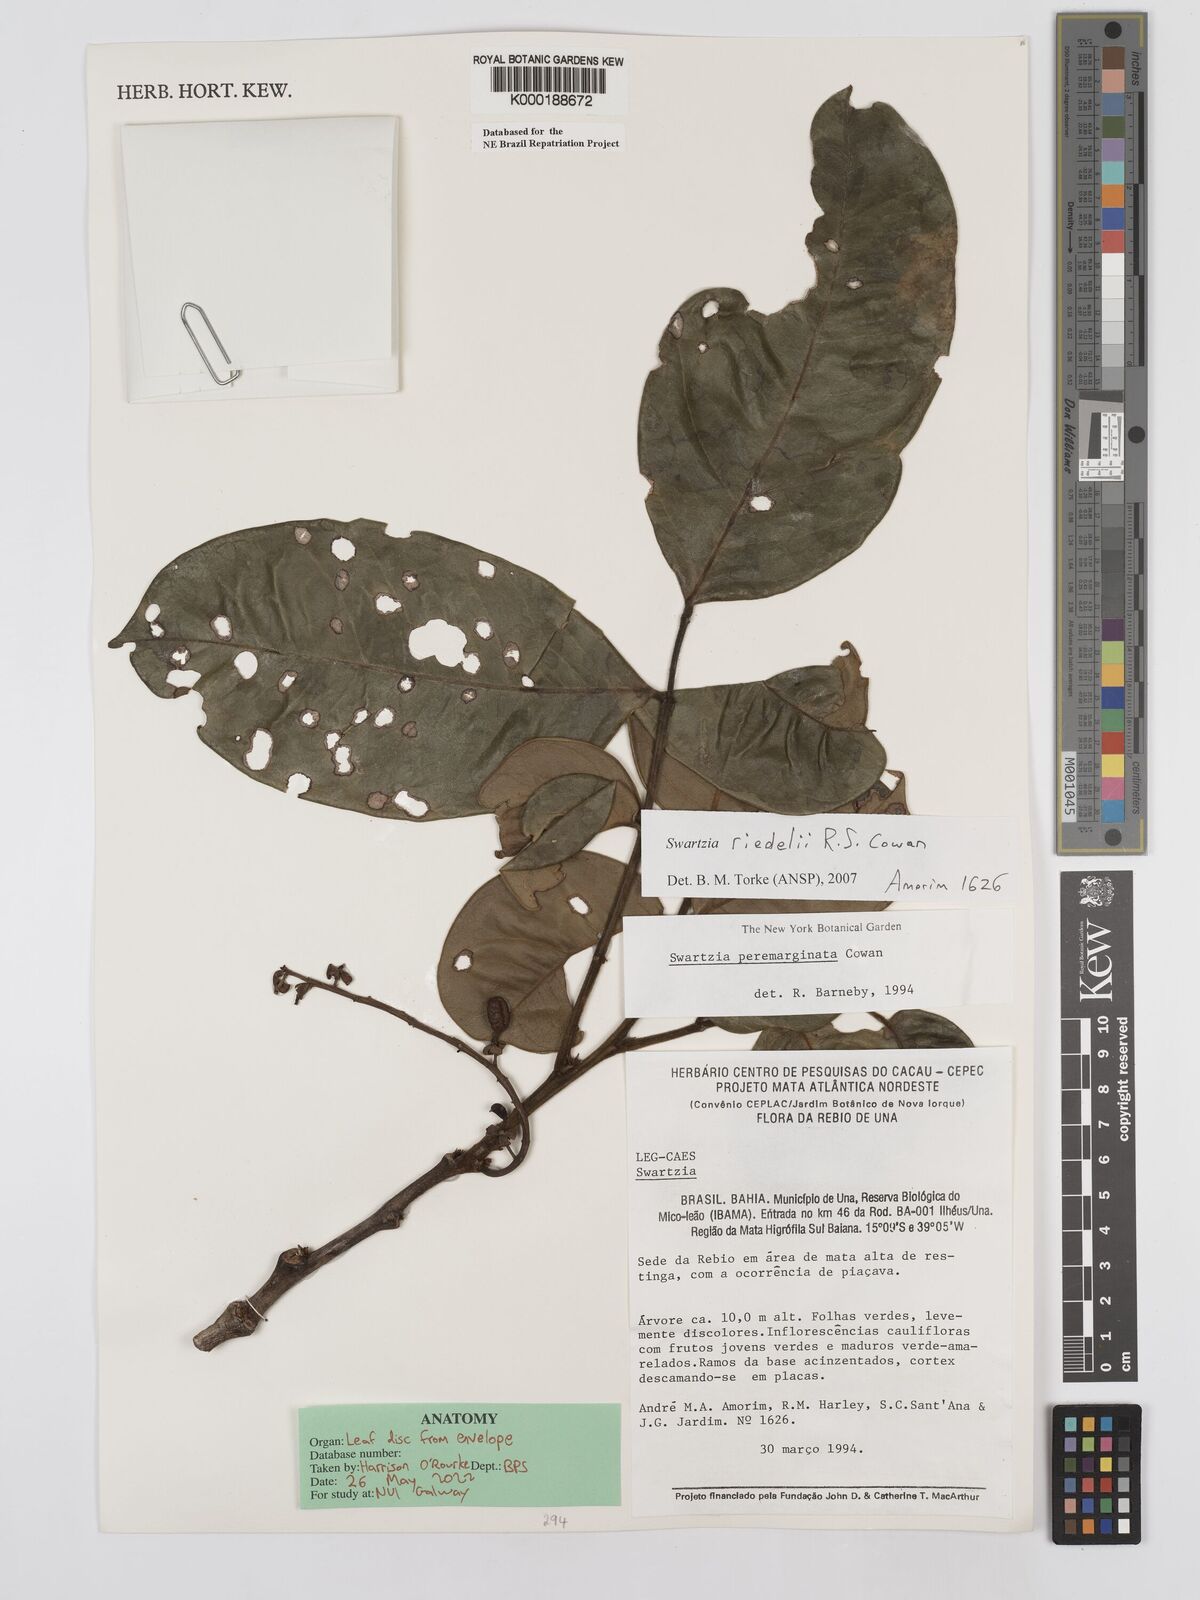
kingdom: Plantae
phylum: Tracheophyta
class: Magnoliopsida
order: Fabales
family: Fabaceae
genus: Swartzia
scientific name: Swartzia riedelii
